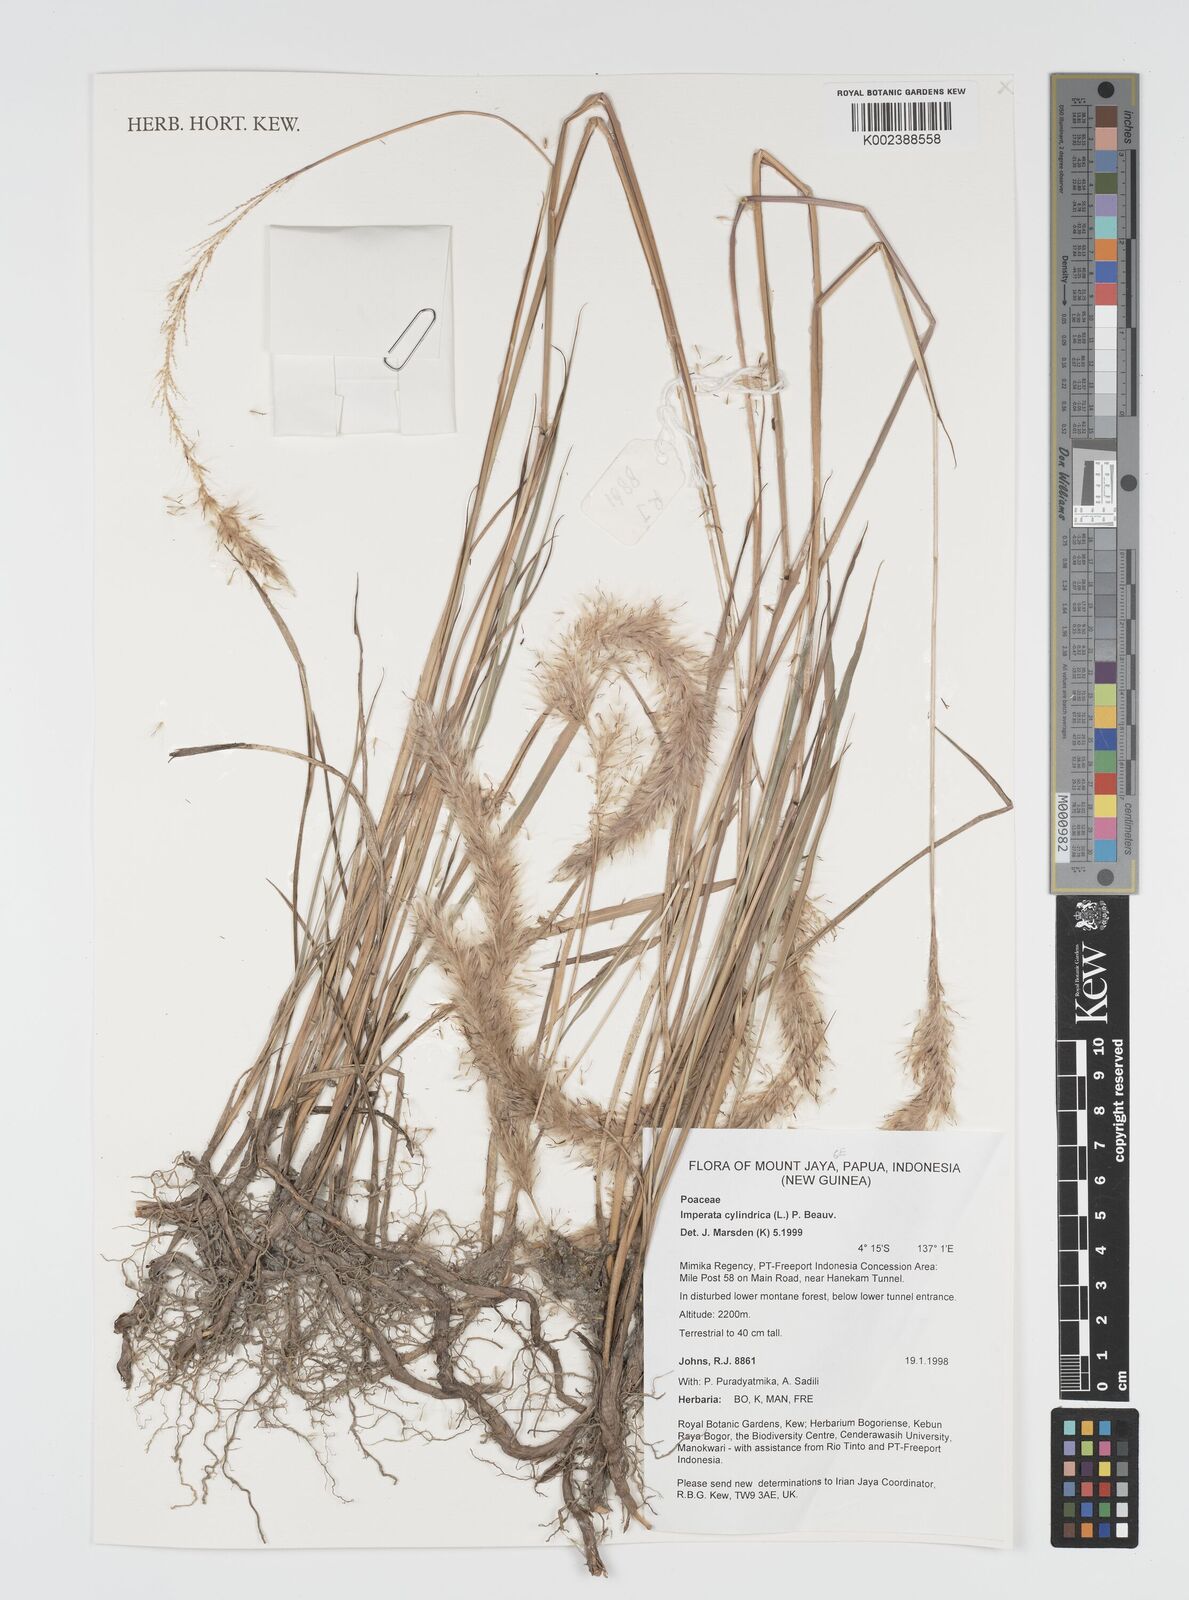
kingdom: Plantae
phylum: Tracheophyta
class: Liliopsida
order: Poales
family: Poaceae
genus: Imperata
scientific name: Imperata cylindrica
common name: Cogongrass
